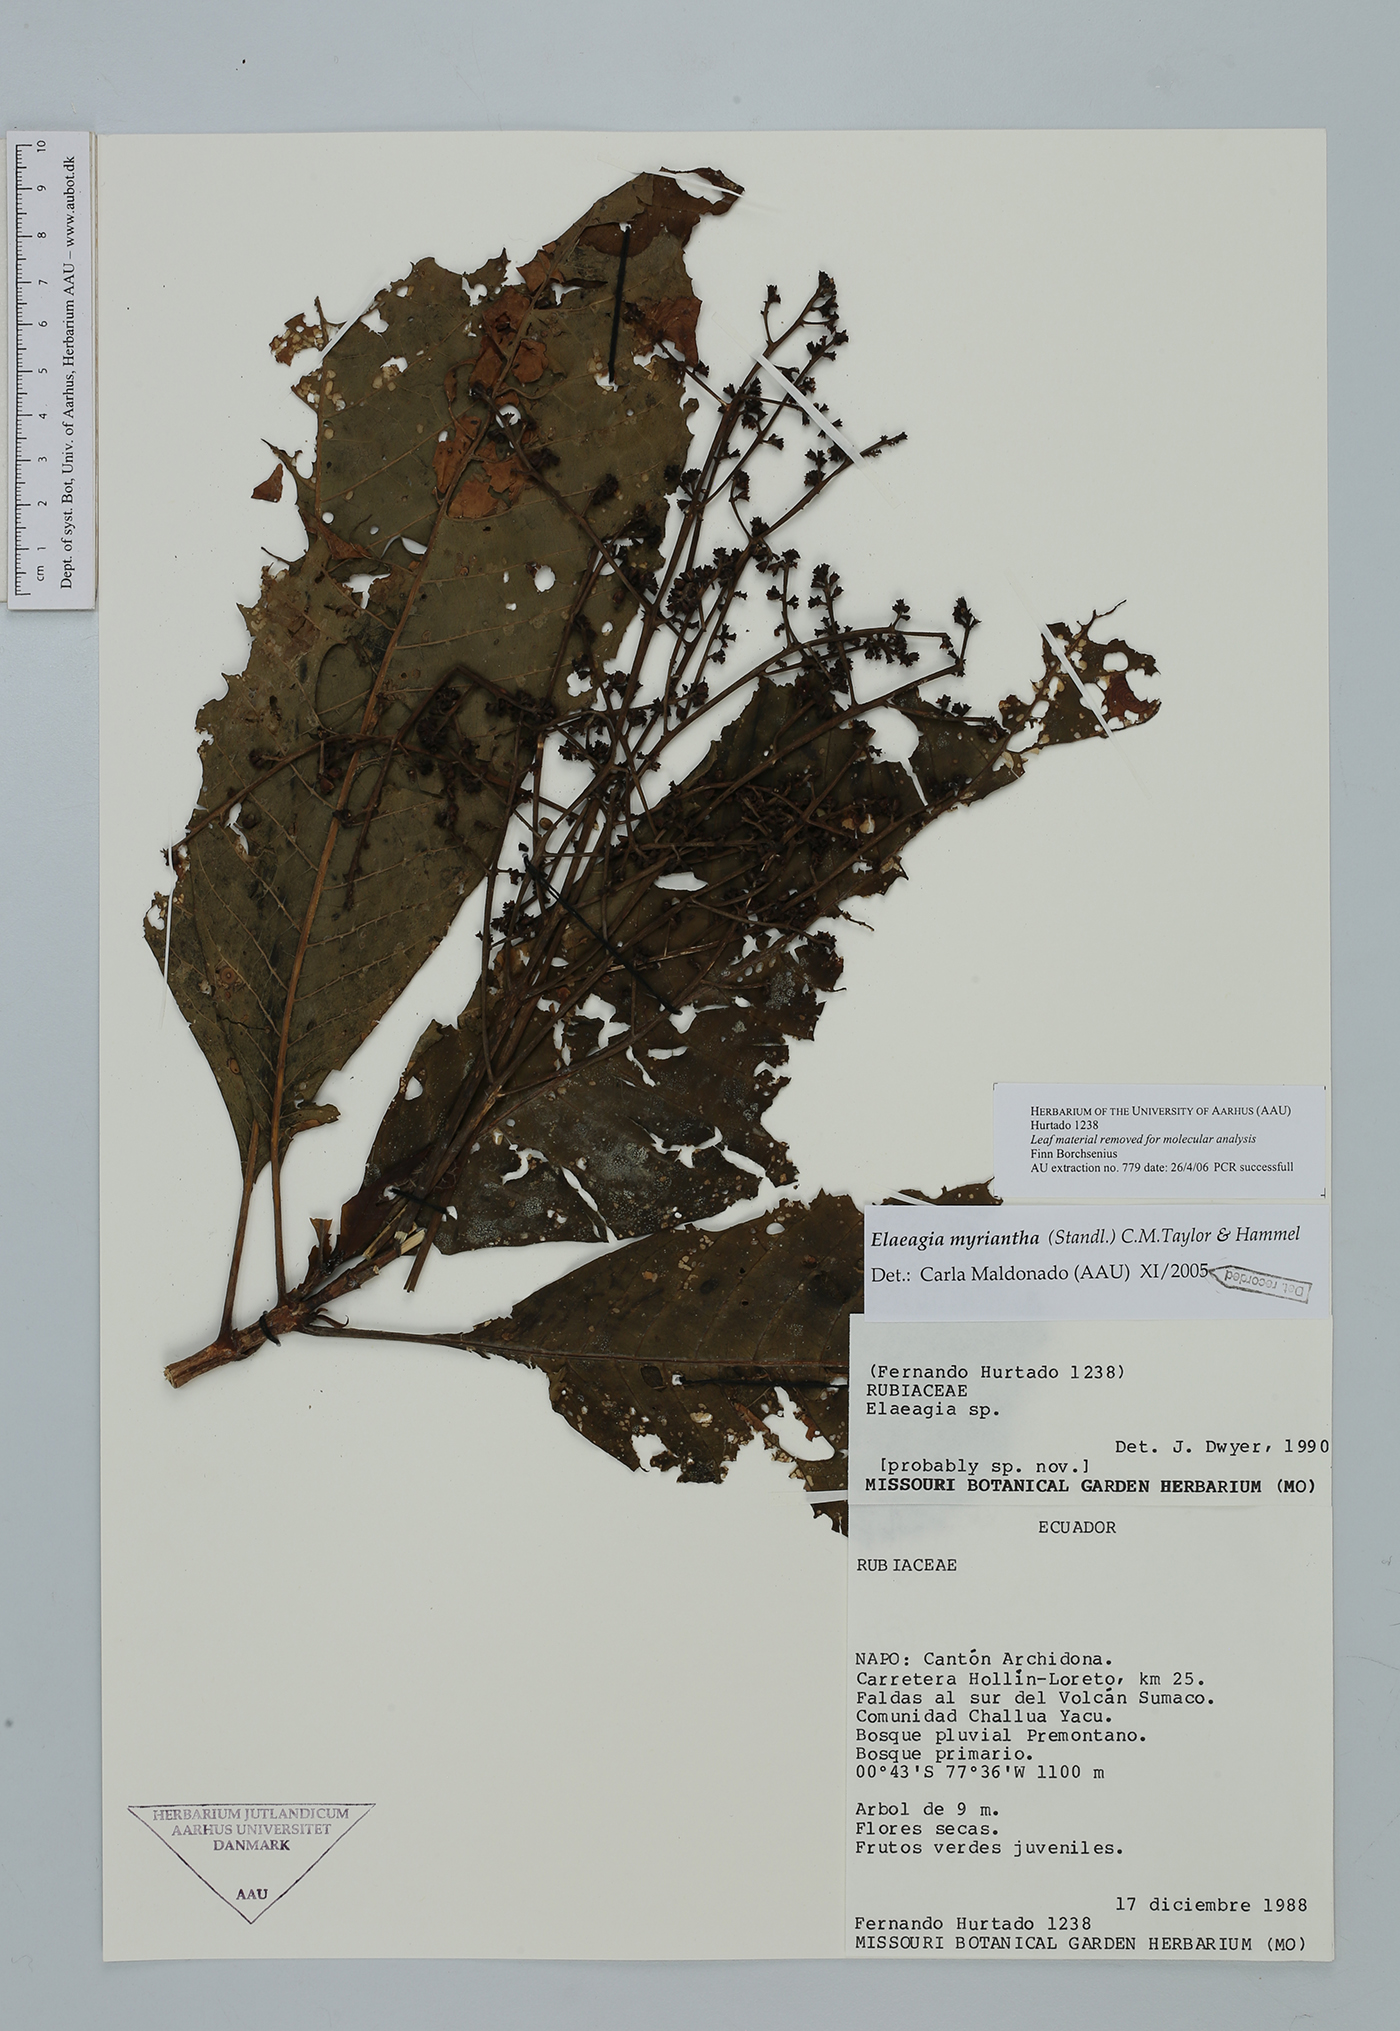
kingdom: Plantae
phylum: Tracheophyta
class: Magnoliopsida
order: Gentianales
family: Rubiaceae
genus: Elaeagia
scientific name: Elaeagia myriantha
